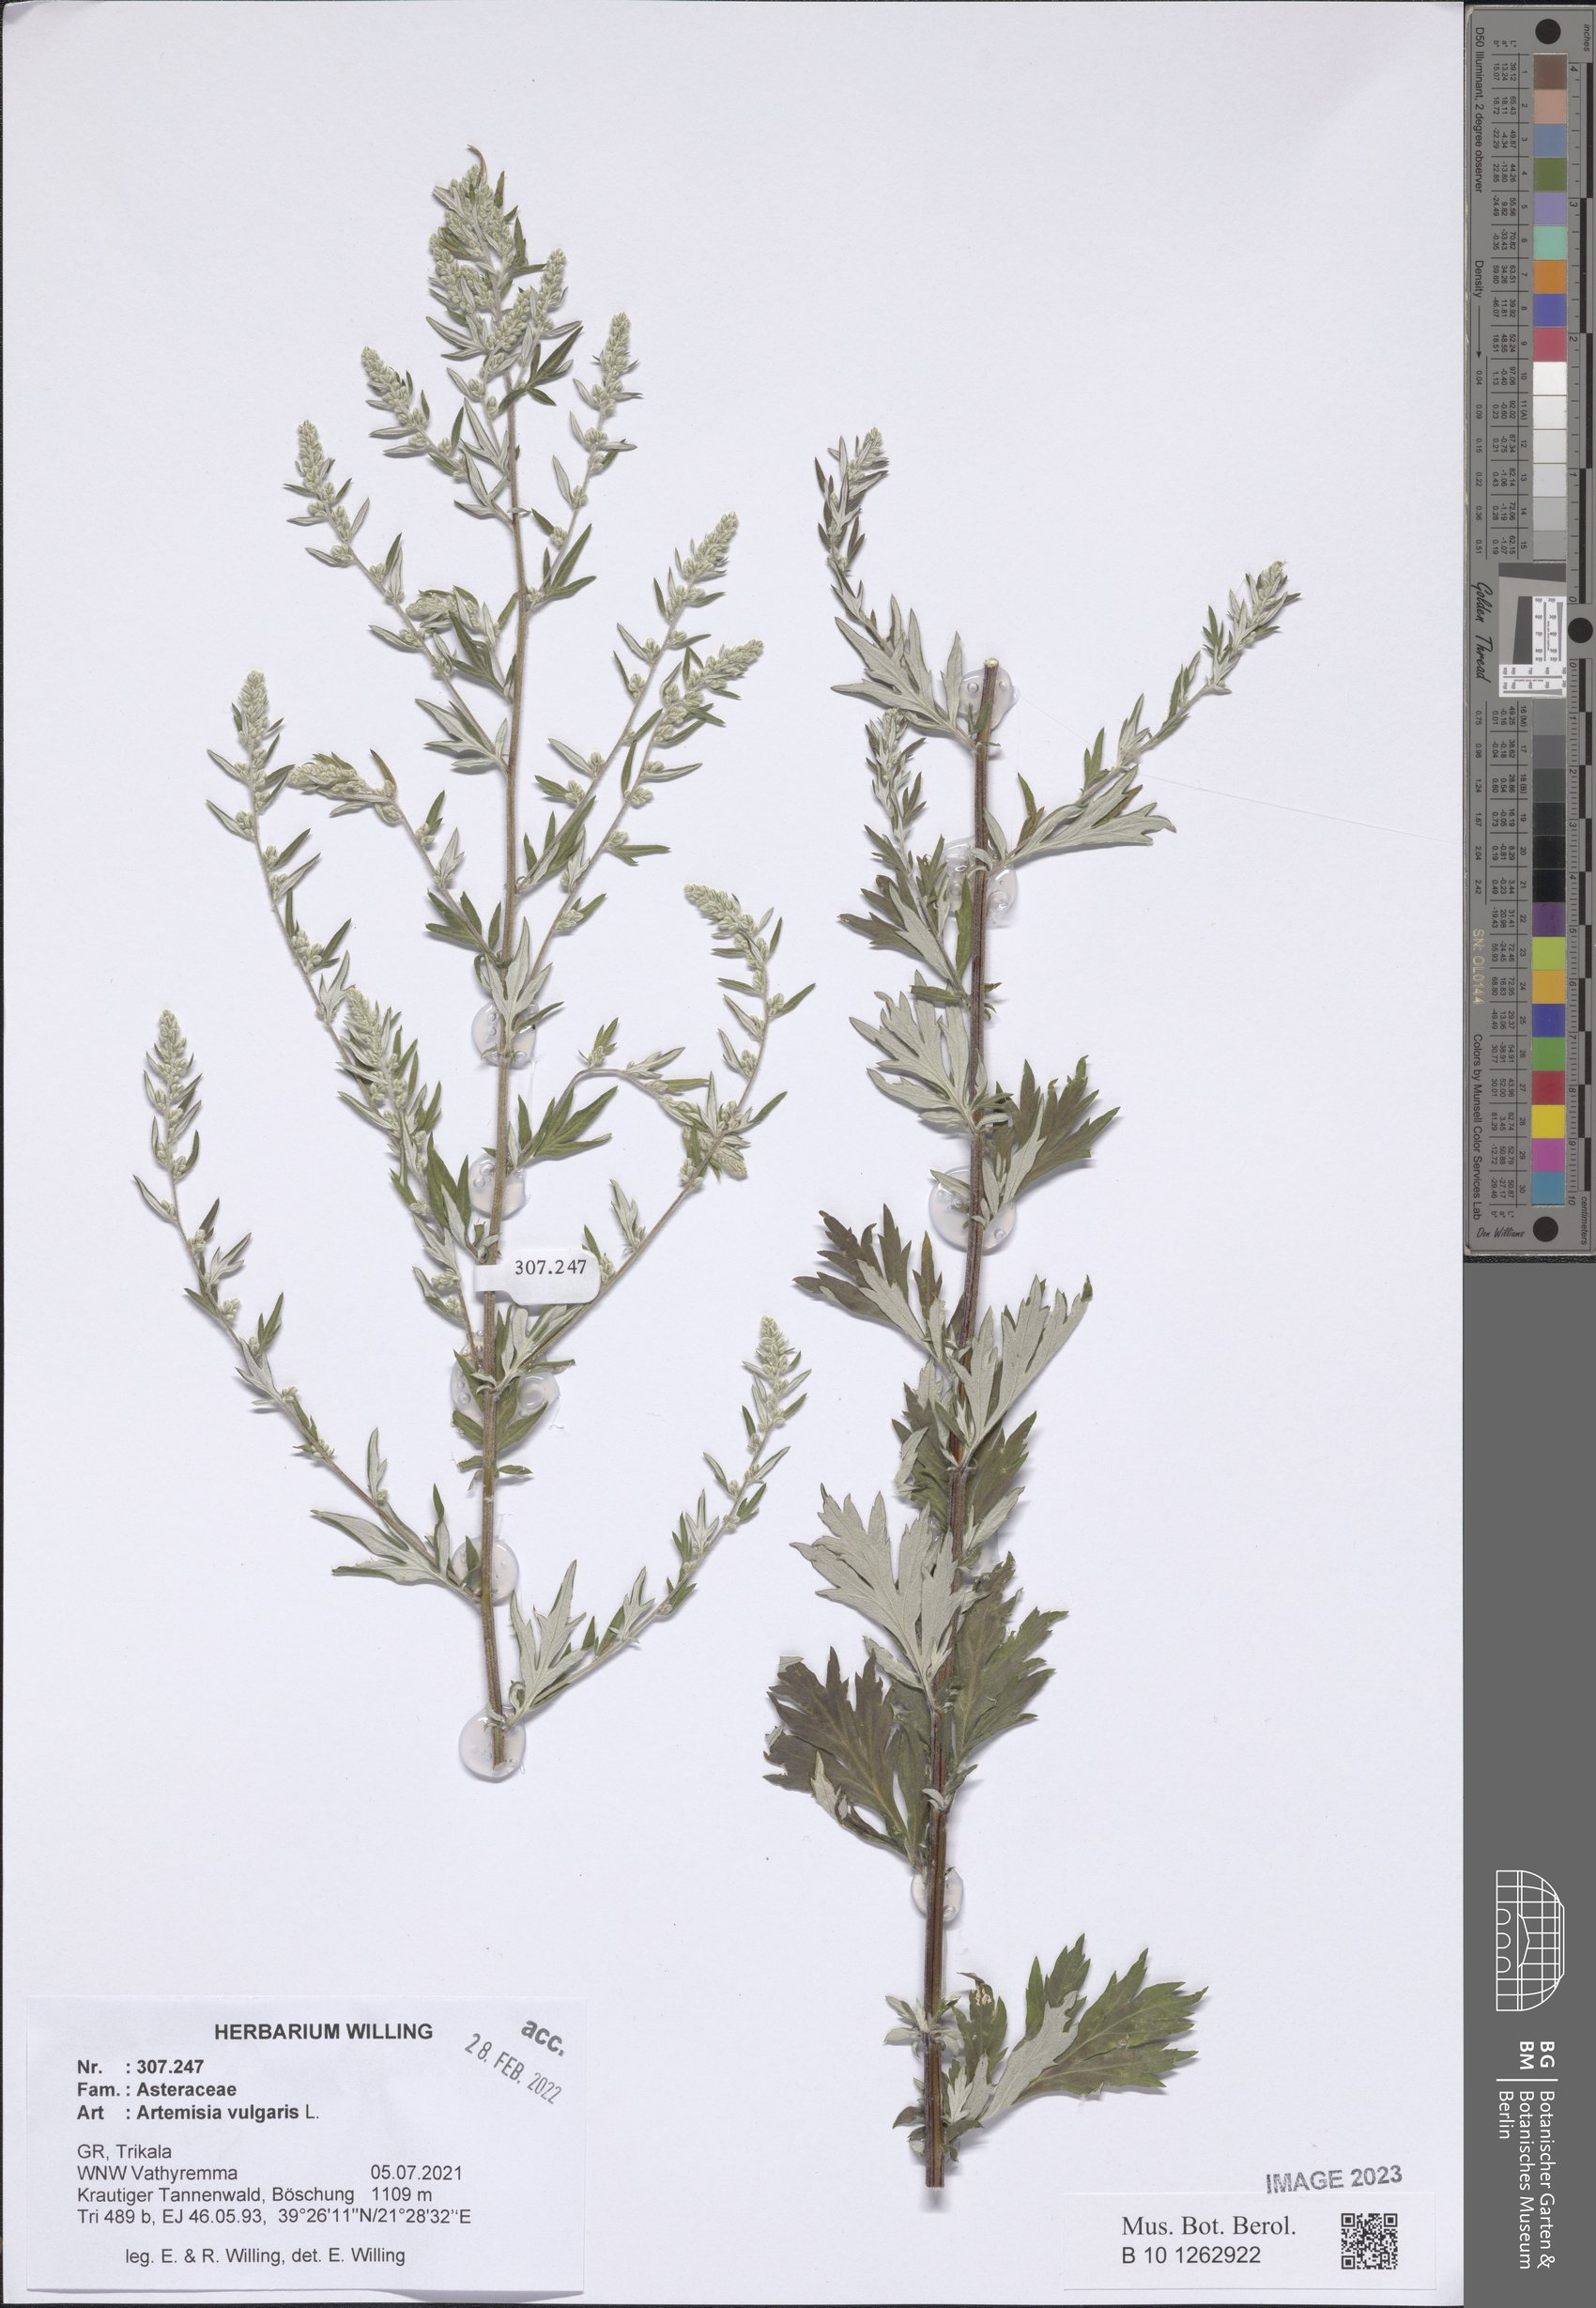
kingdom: Plantae
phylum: Tracheophyta
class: Magnoliopsida
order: Asterales
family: Asteraceae
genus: Artemisia
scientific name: Artemisia vulgaris
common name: Mugwort
